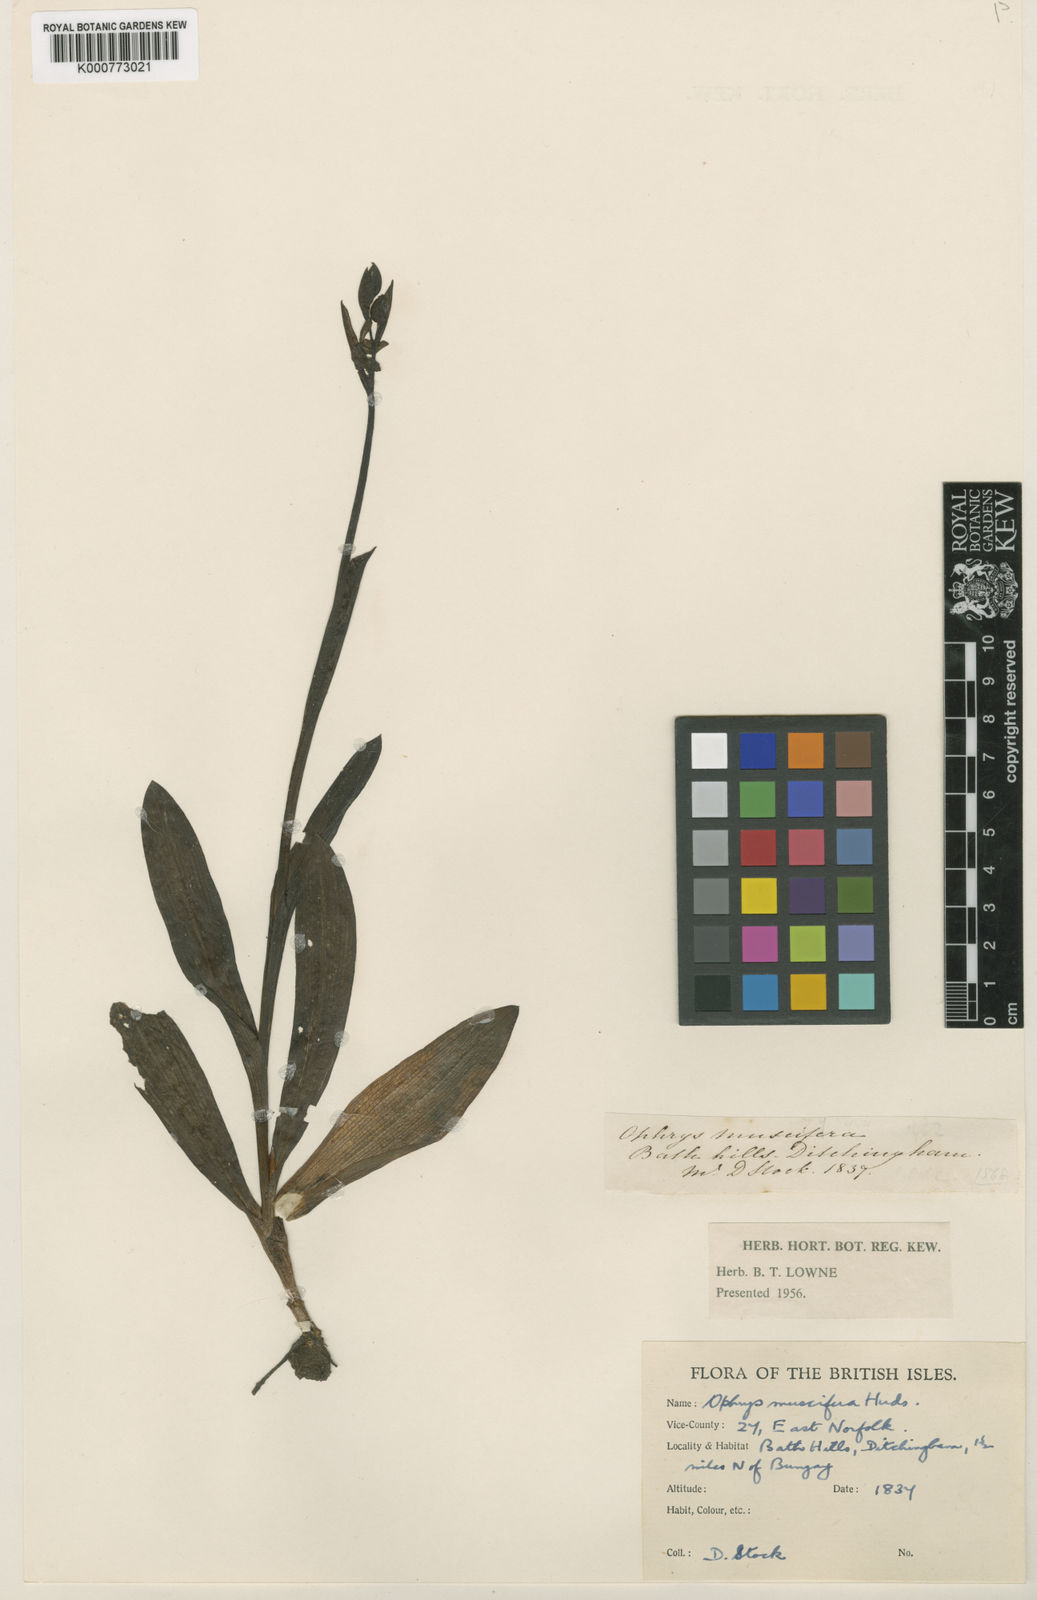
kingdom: Plantae
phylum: Tracheophyta
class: Liliopsida
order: Asparagales
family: Orchidaceae
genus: Ophrys
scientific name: Ophrys insectifera
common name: Fly orchid
